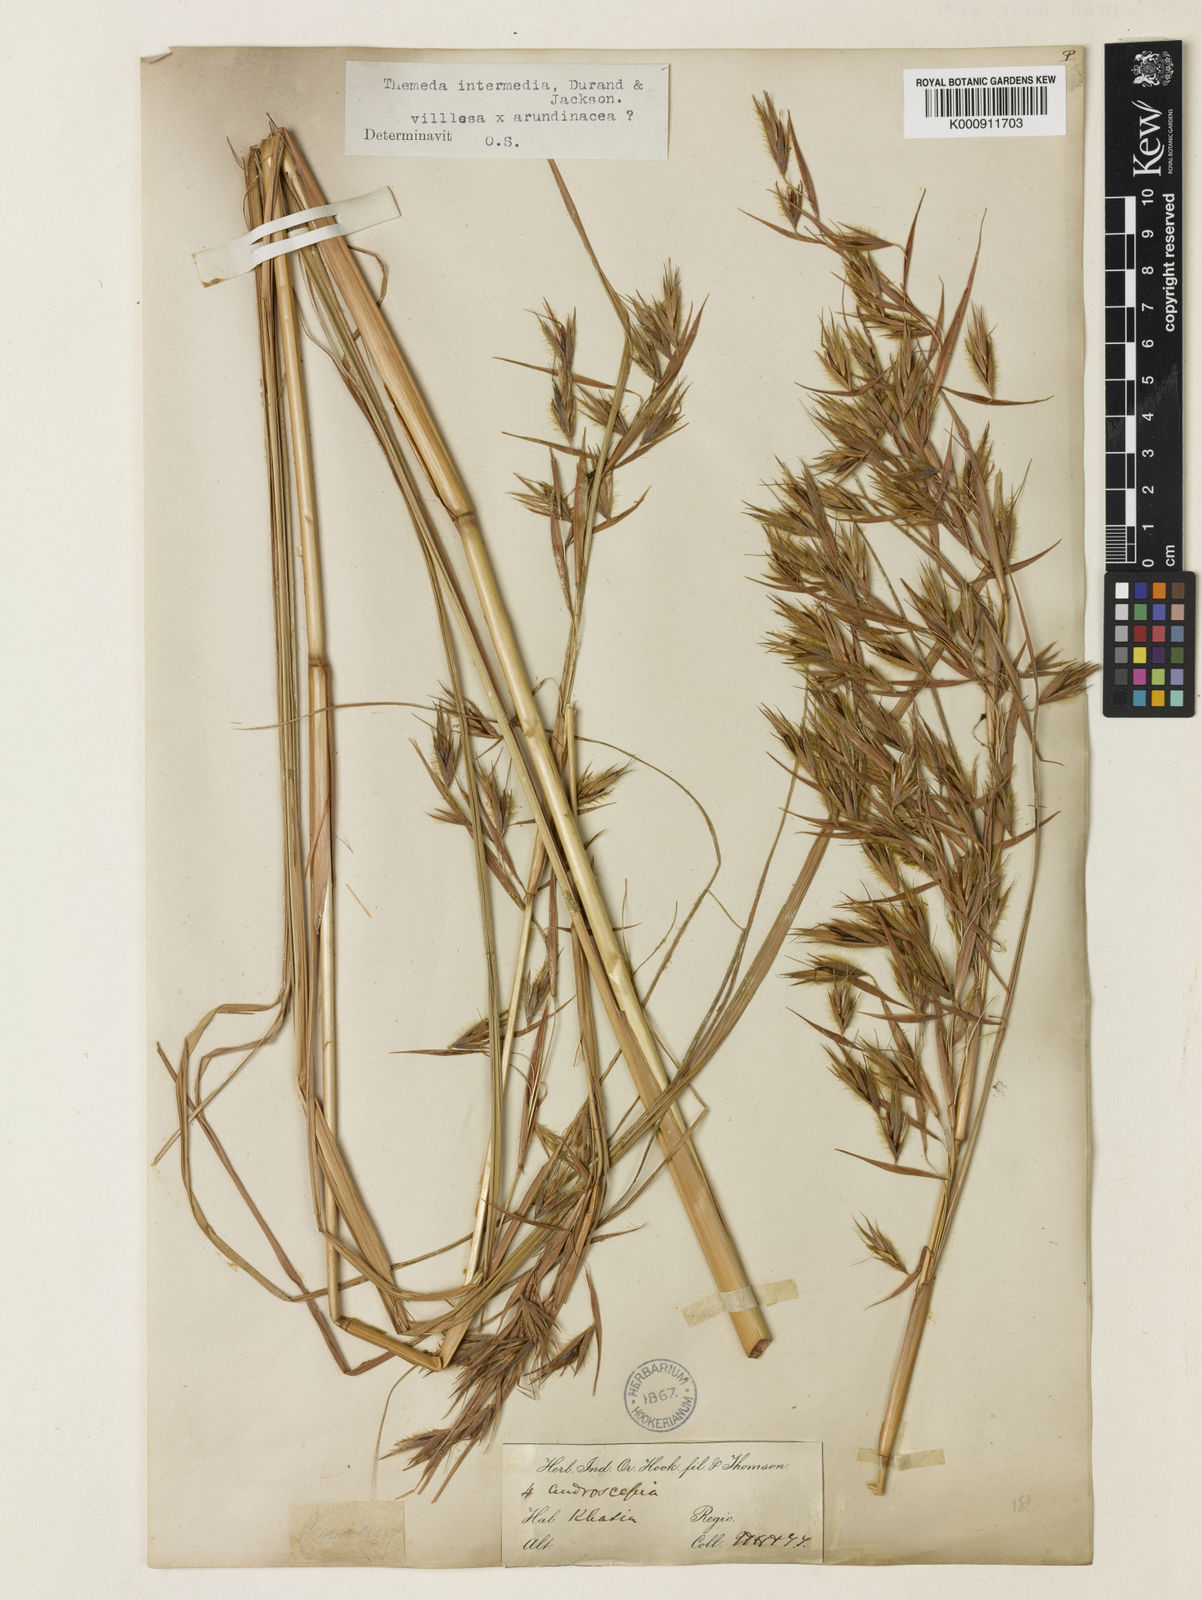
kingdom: Plantae
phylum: Tracheophyta
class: Liliopsida
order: Poales
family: Poaceae
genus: Themeda
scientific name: Themeda
